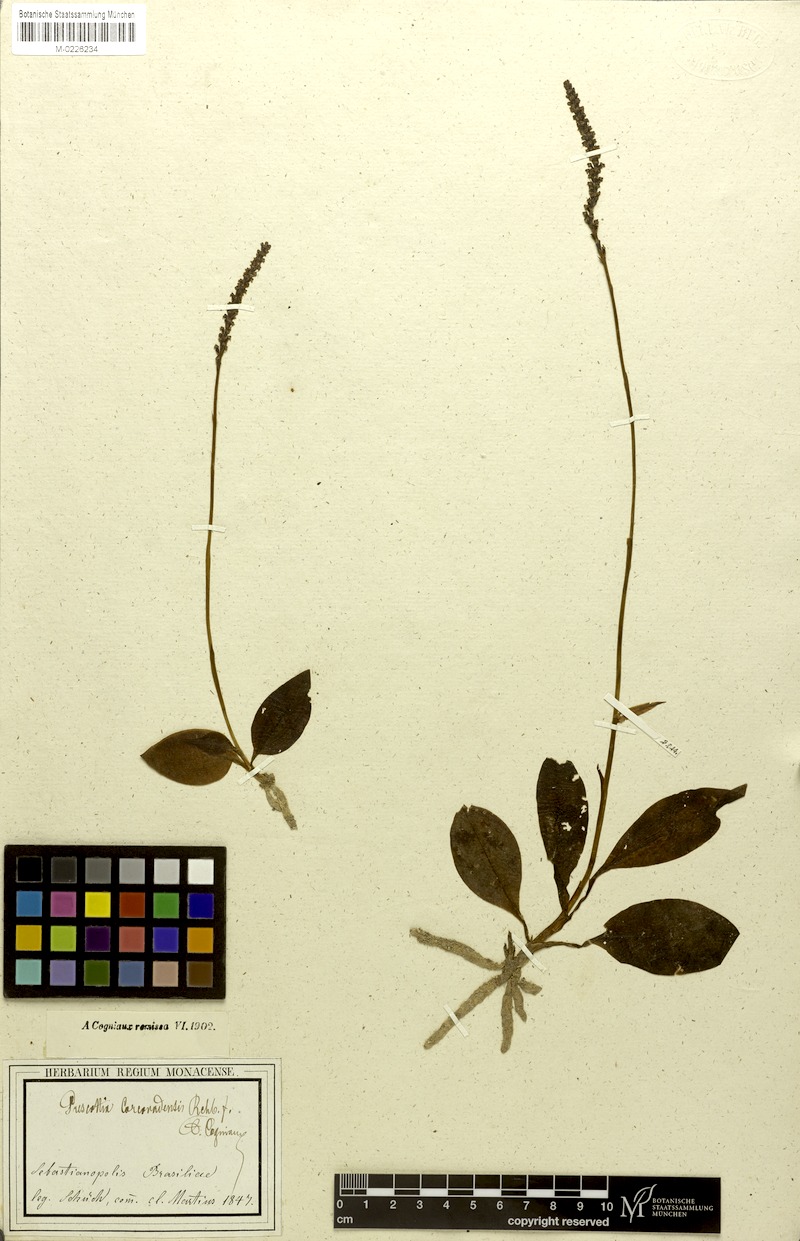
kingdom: Plantae
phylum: Tracheophyta
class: Liliopsida
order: Asparagales
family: Orchidaceae
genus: Prescottia
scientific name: Prescottia plantaginea
